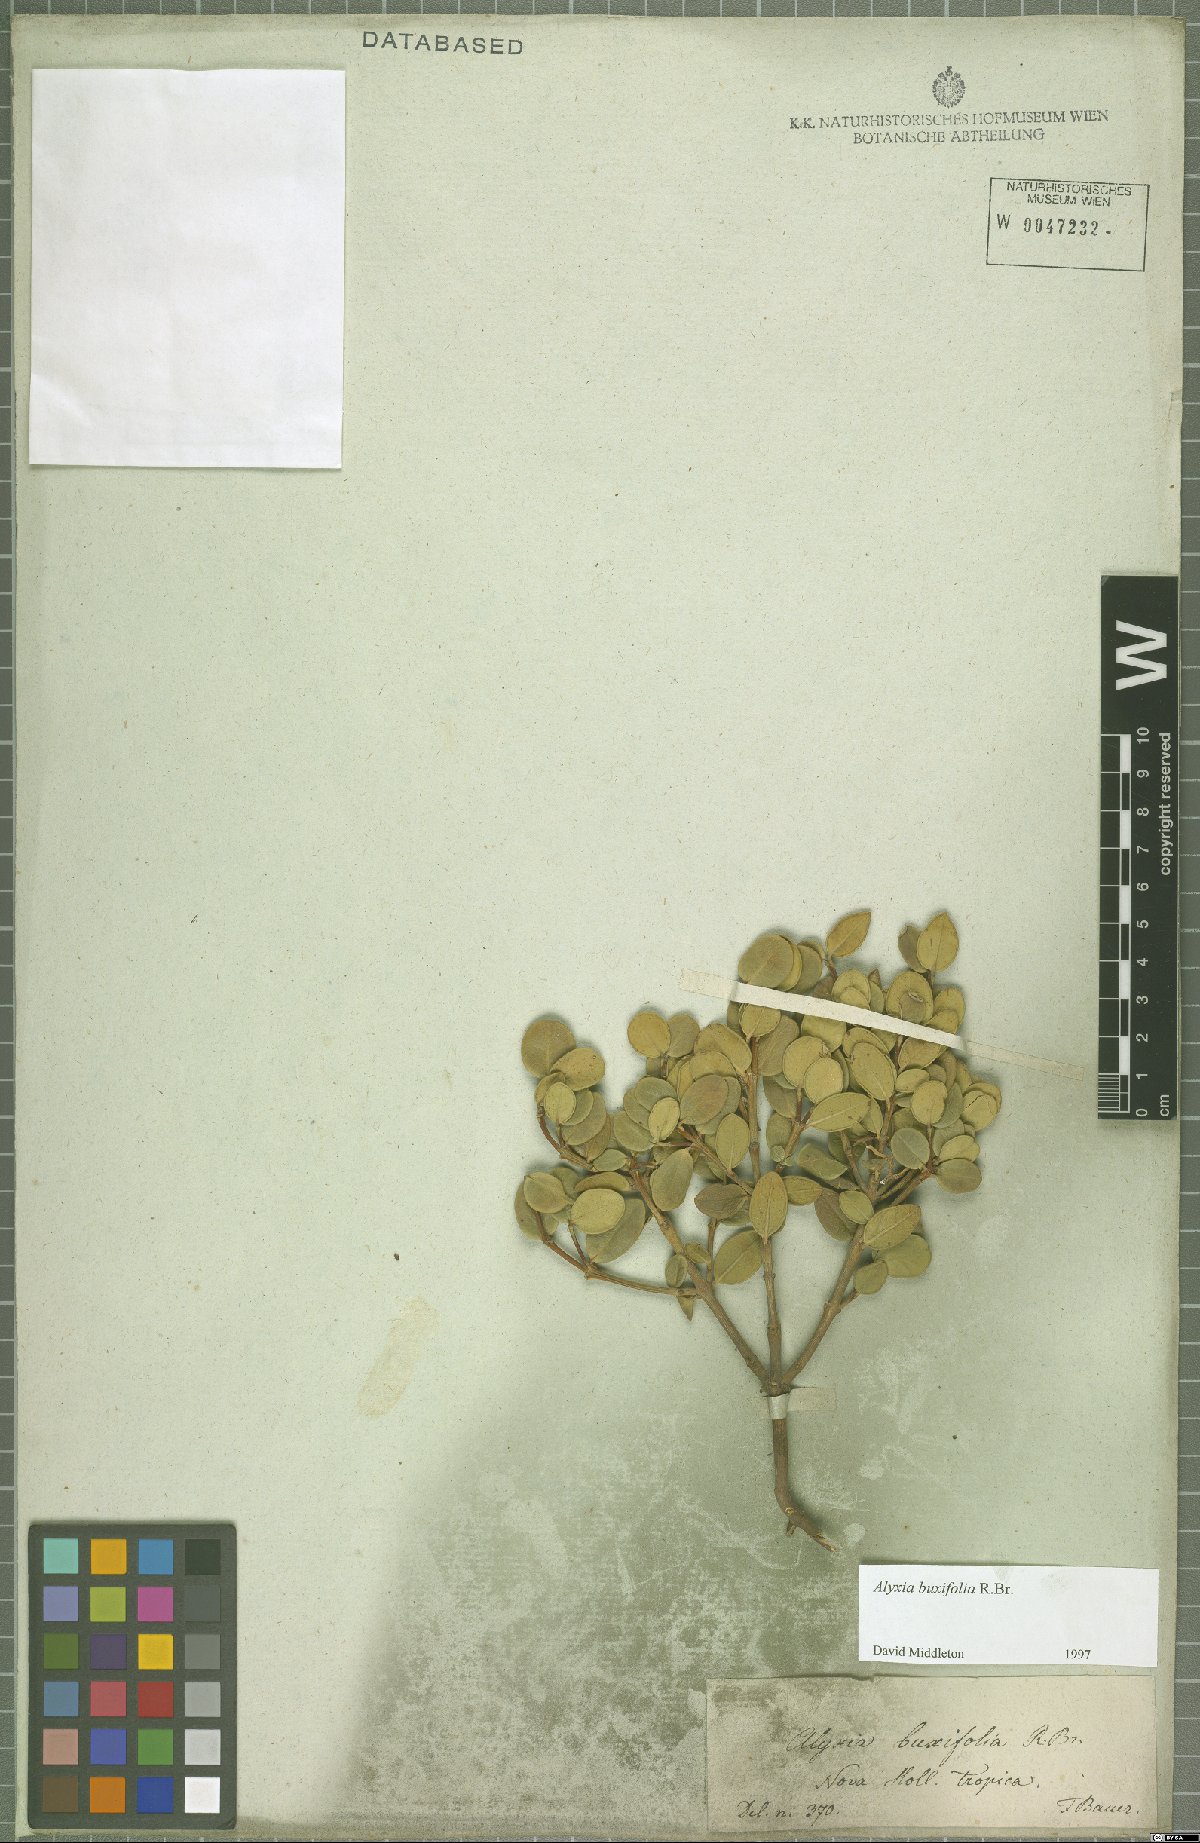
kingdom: Plantae
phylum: Tracheophyta
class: Magnoliopsida
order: Gentianales
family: Apocynaceae
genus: Alyxia
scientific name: Alyxia buxifolia
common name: Dysentery-bush
